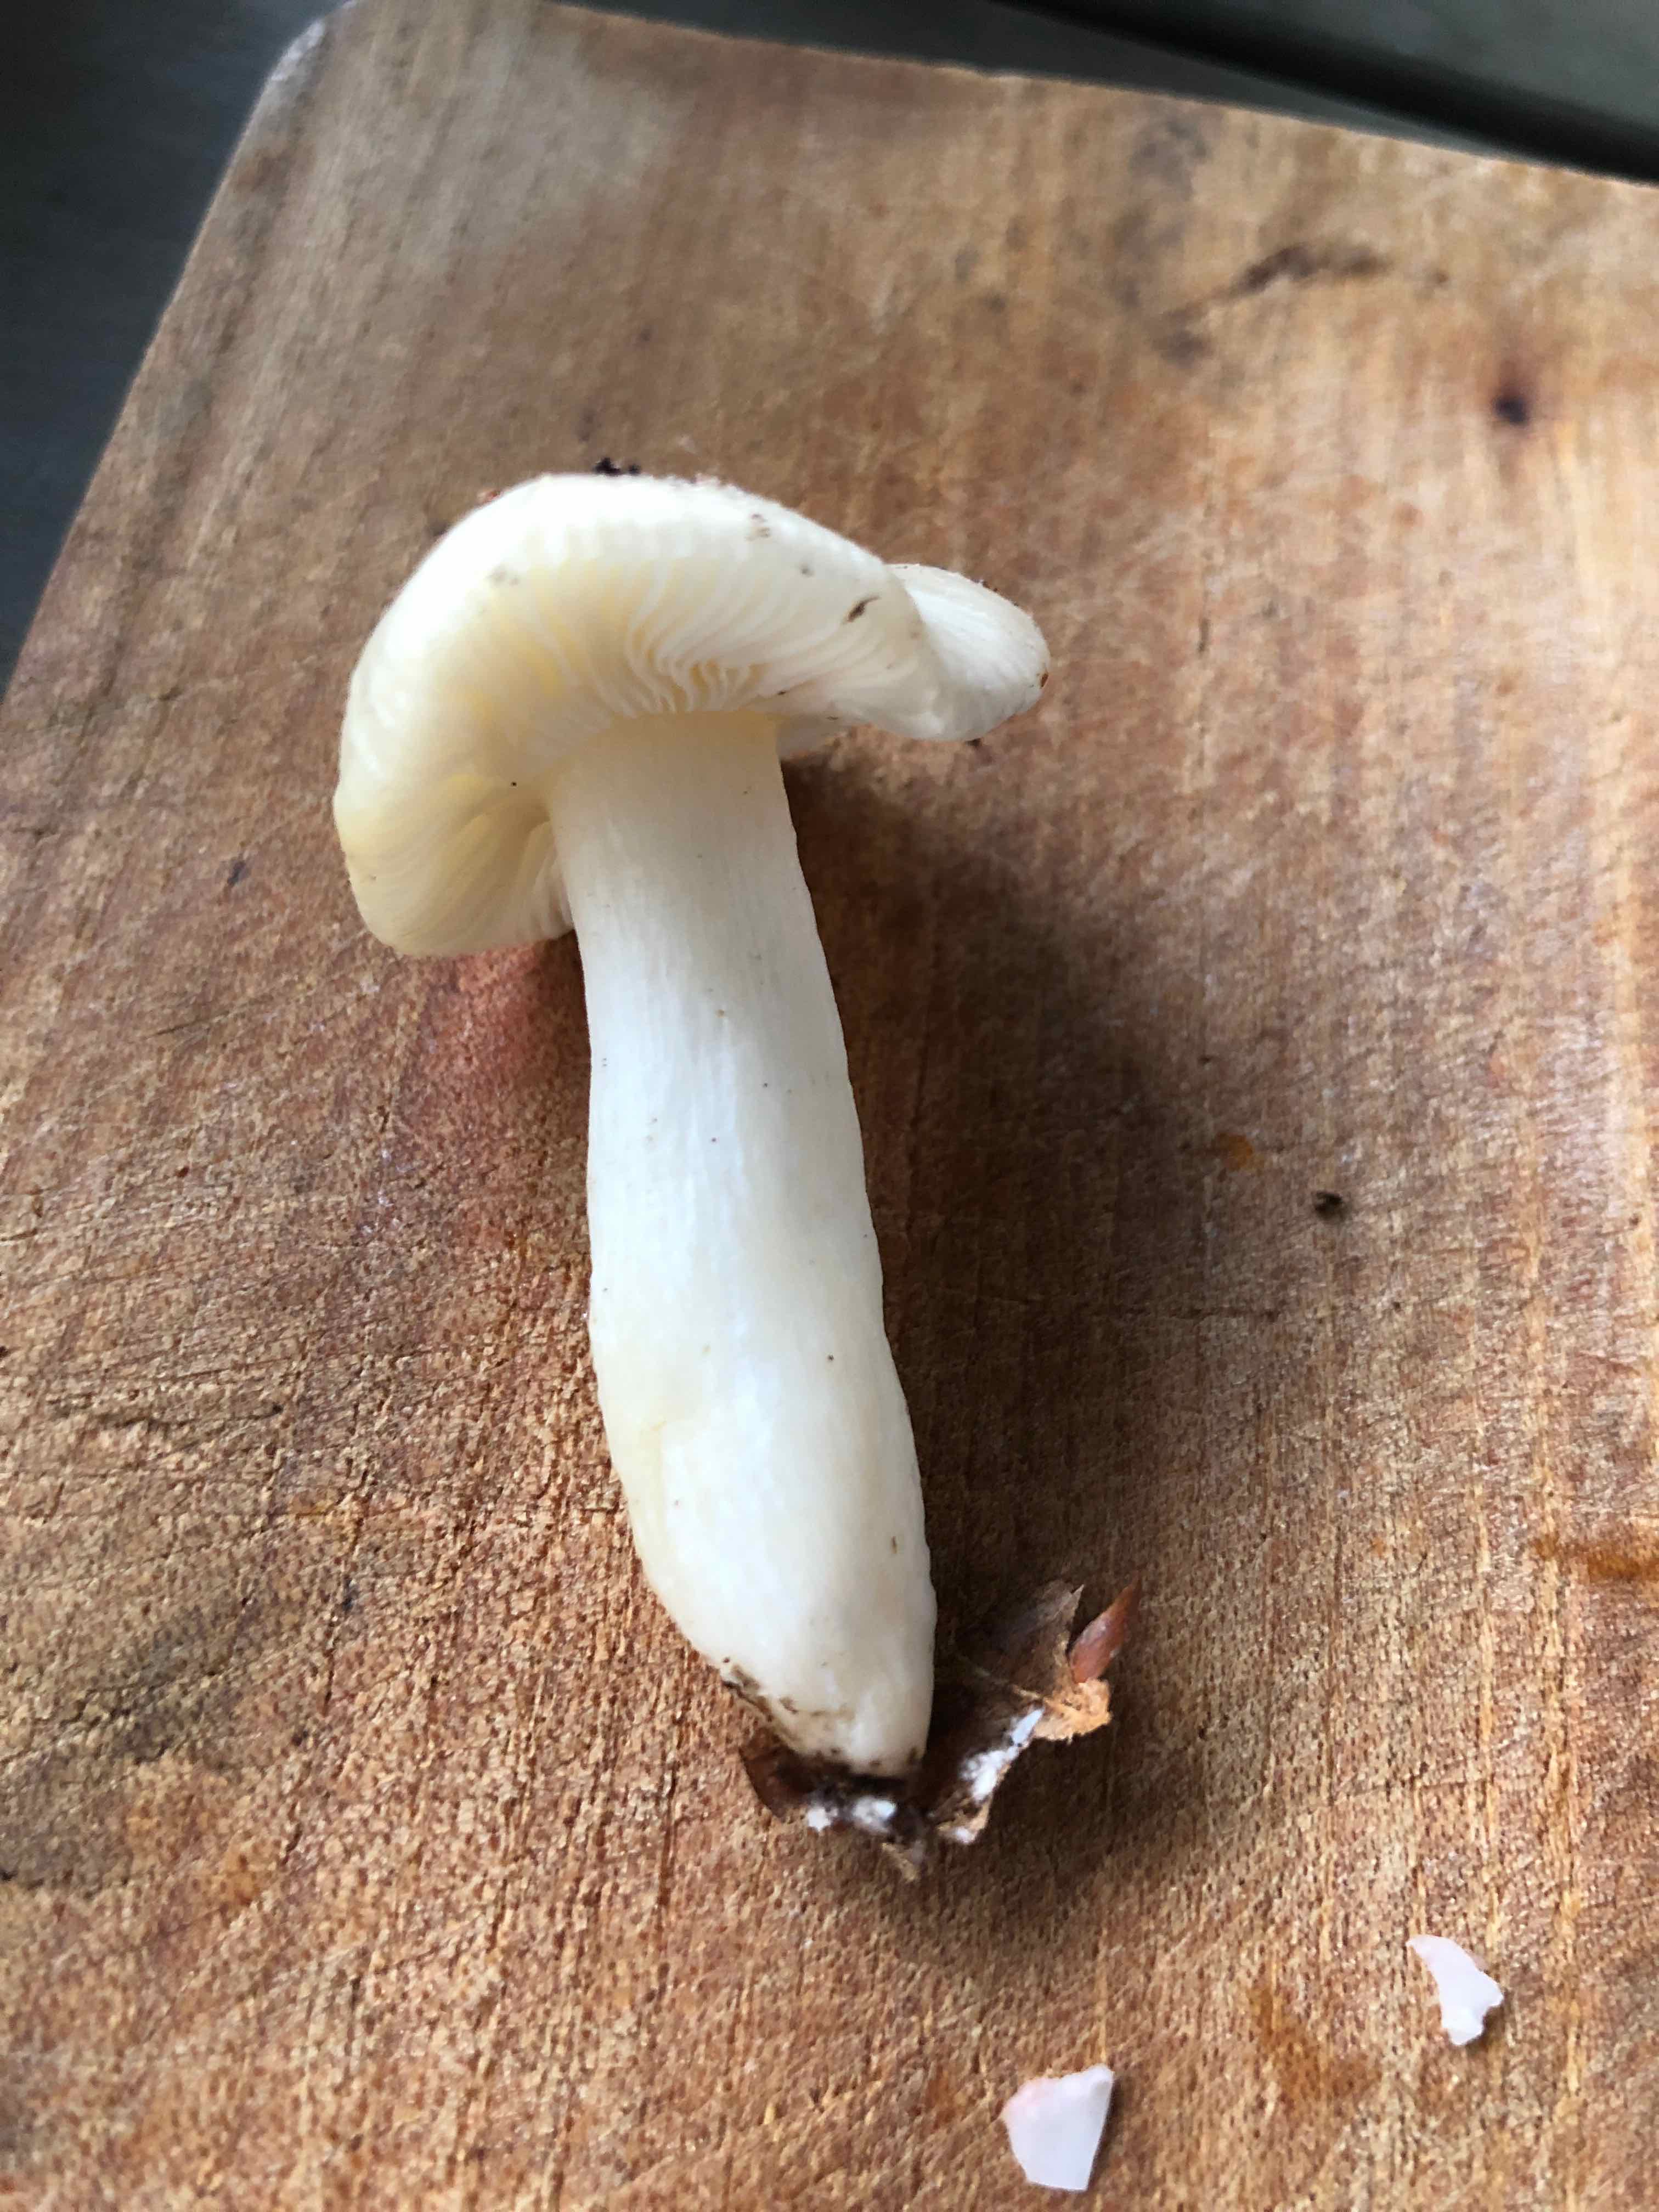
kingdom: Fungi
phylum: Basidiomycota
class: Agaricomycetes
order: Russulales
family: Russulaceae
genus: Russula
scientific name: Russula
